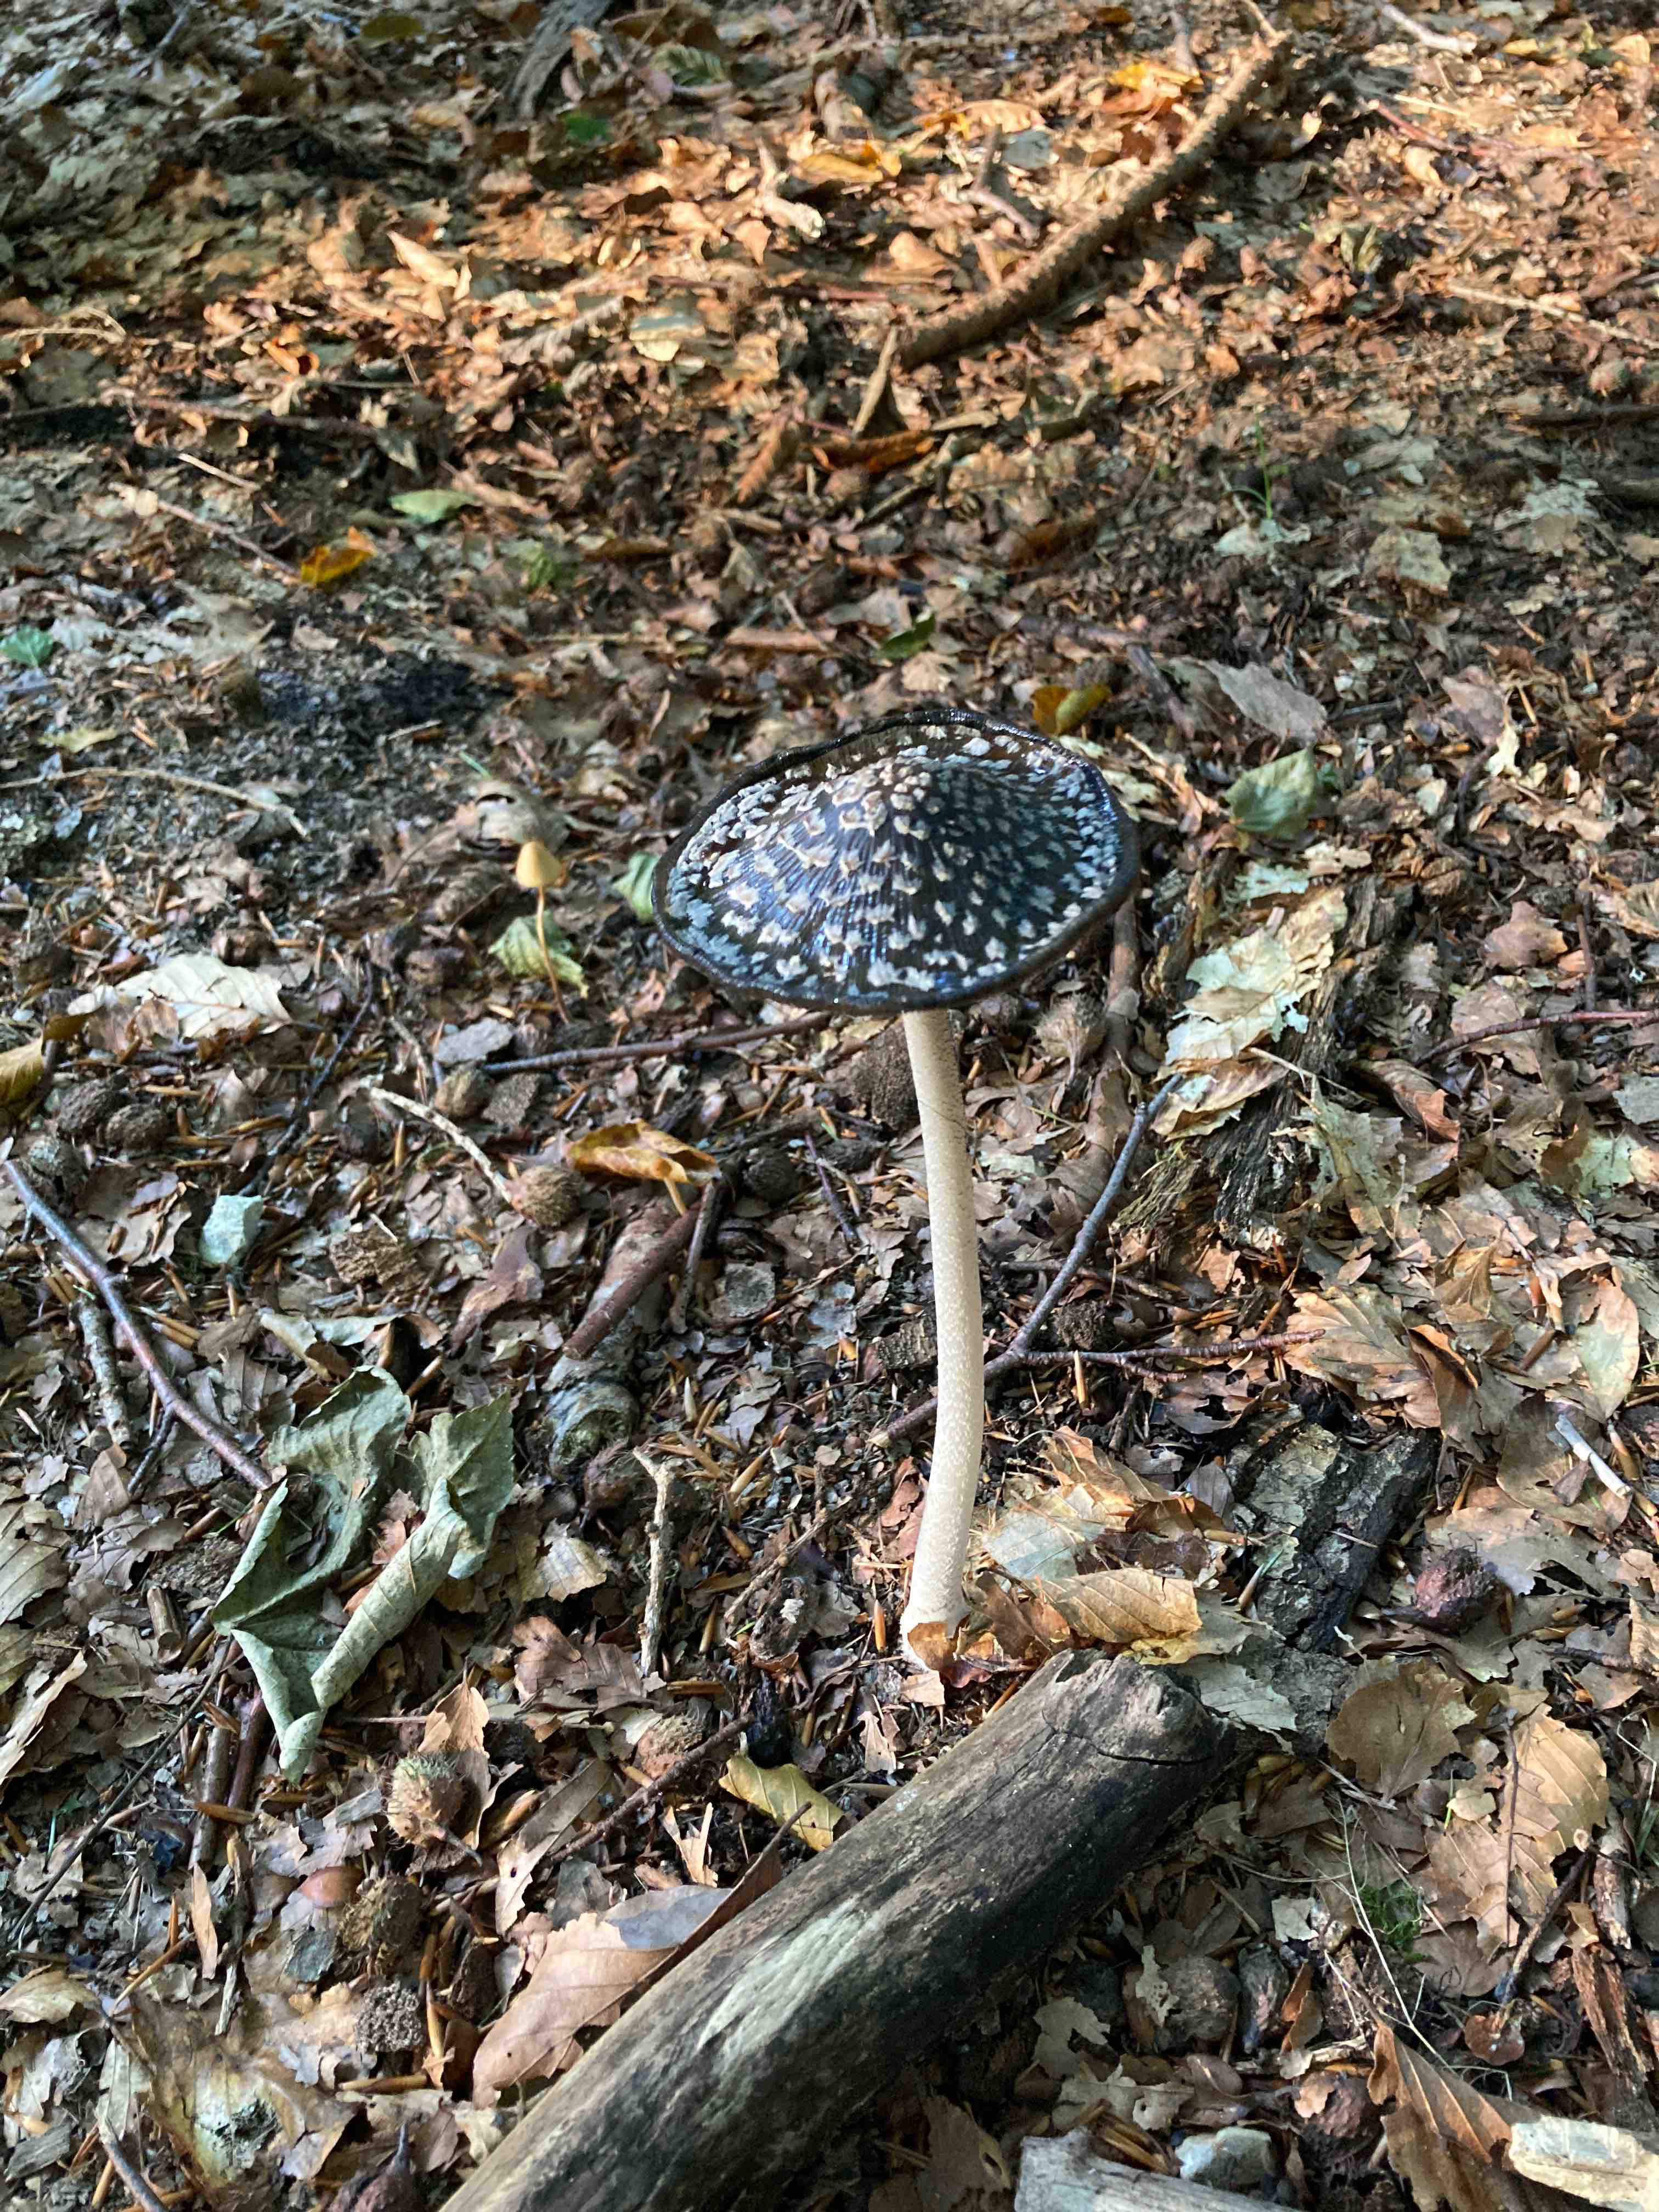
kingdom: Fungi
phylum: Basidiomycota
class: Agaricomycetes
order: Agaricales
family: Psathyrellaceae
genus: Coprinopsis
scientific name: Coprinopsis picacea
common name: skade-blækhat
